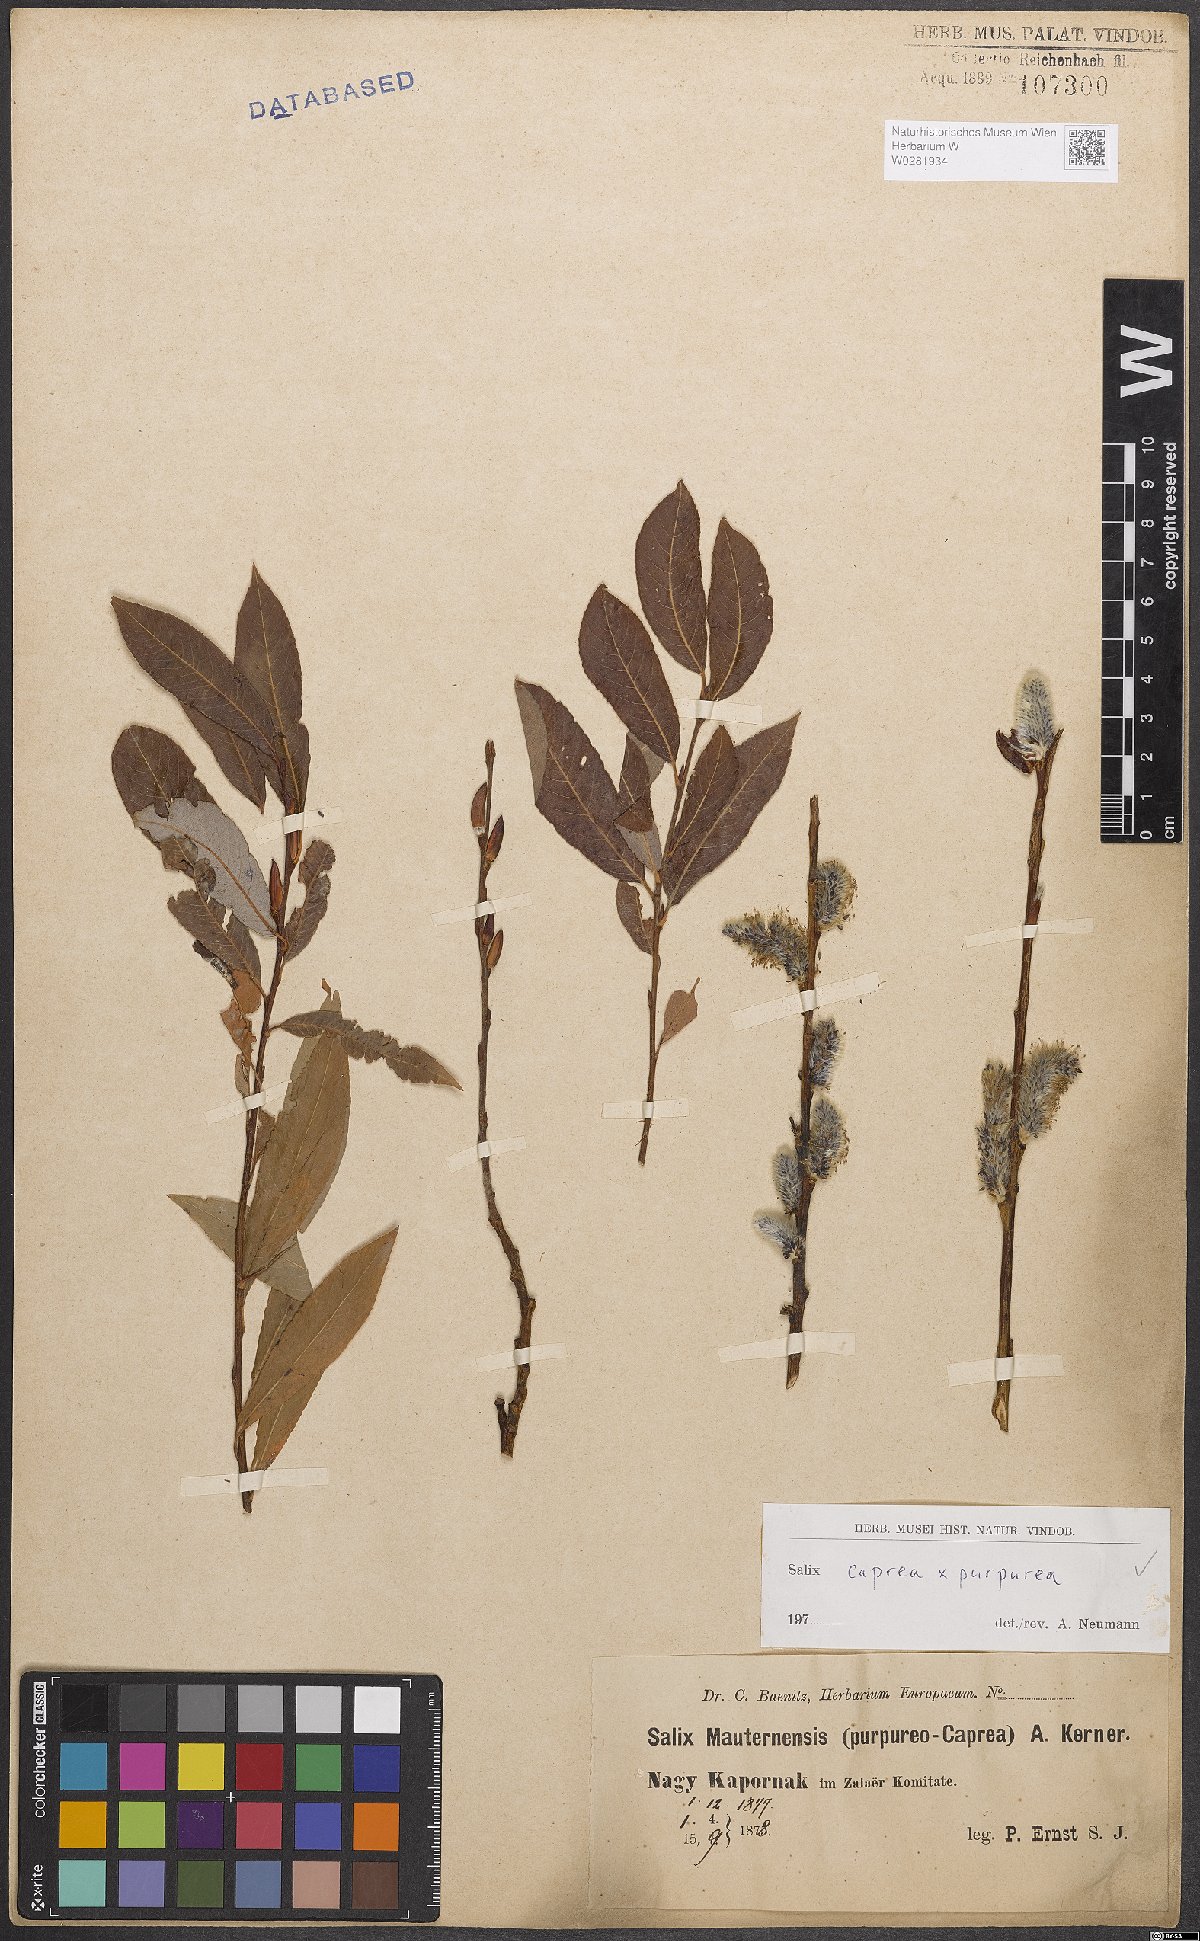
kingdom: Plantae
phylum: Tracheophyta
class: Magnoliopsida
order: Malpighiales
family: Salicaceae
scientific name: Salicaceae
